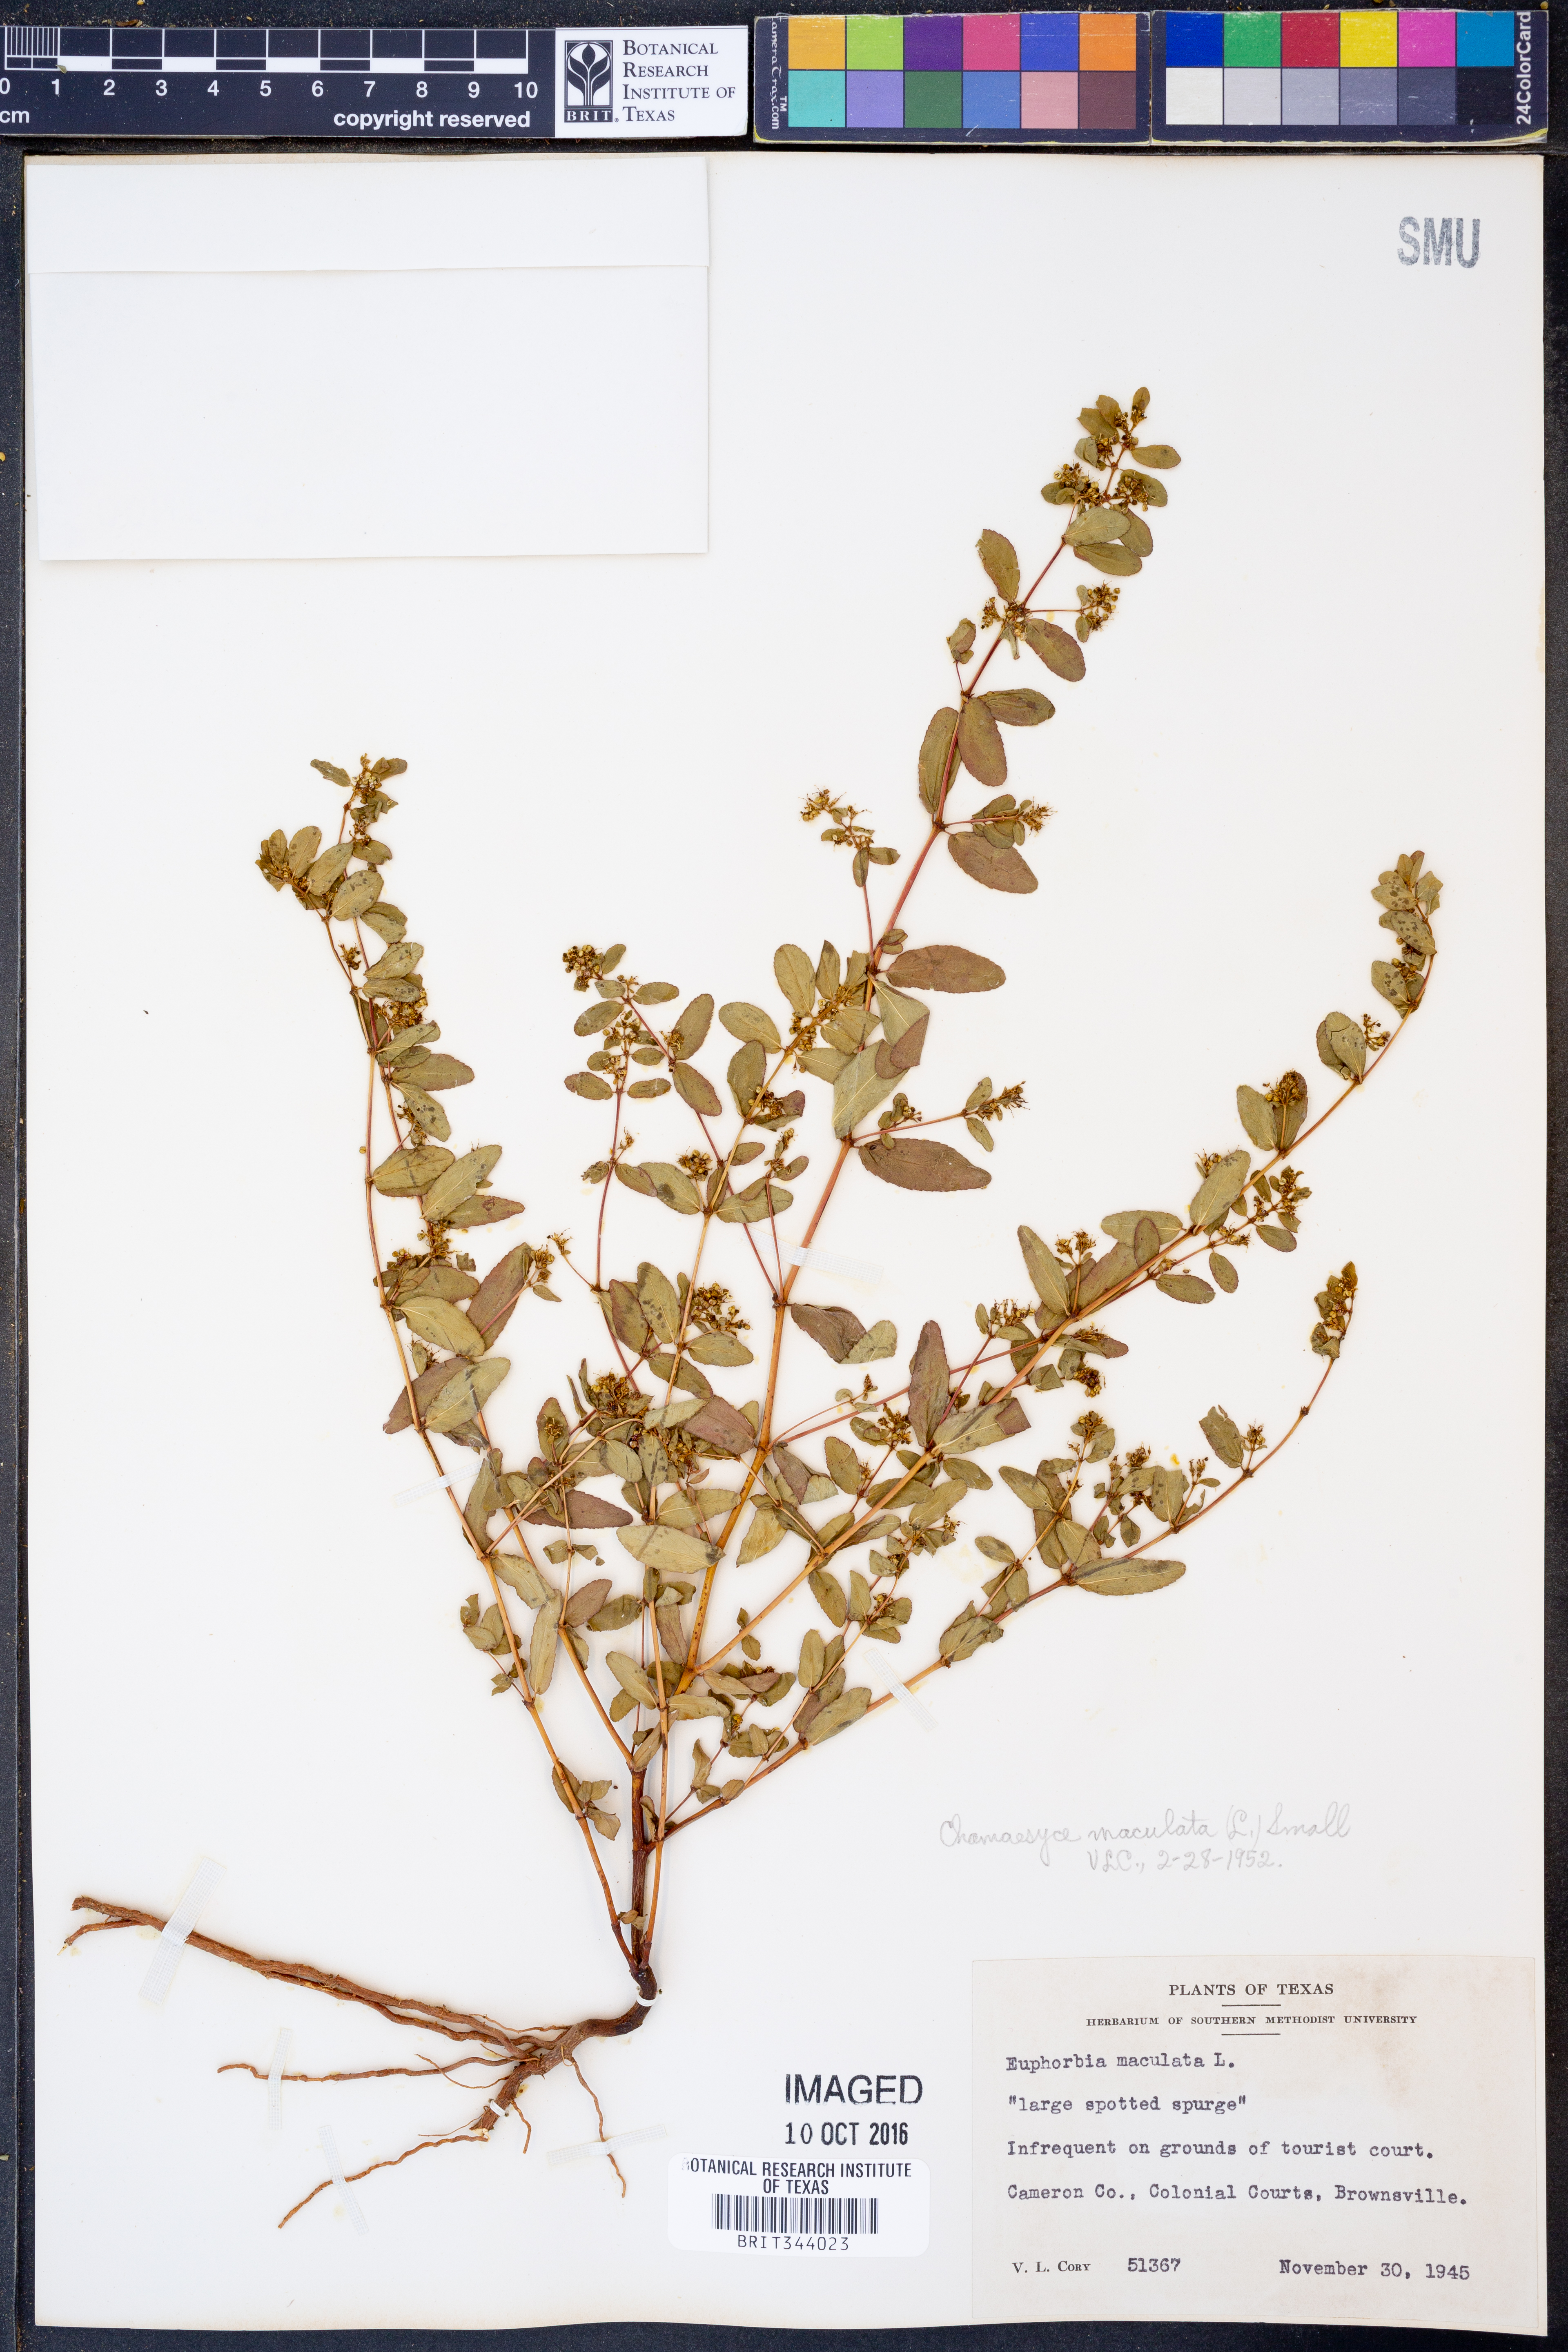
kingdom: Plantae
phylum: Tracheophyta
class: Magnoliopsida
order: Malpighiales
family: Euphorbiaceae
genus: Euphorbia
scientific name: Euphorbia maculata
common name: Spotted spurge
